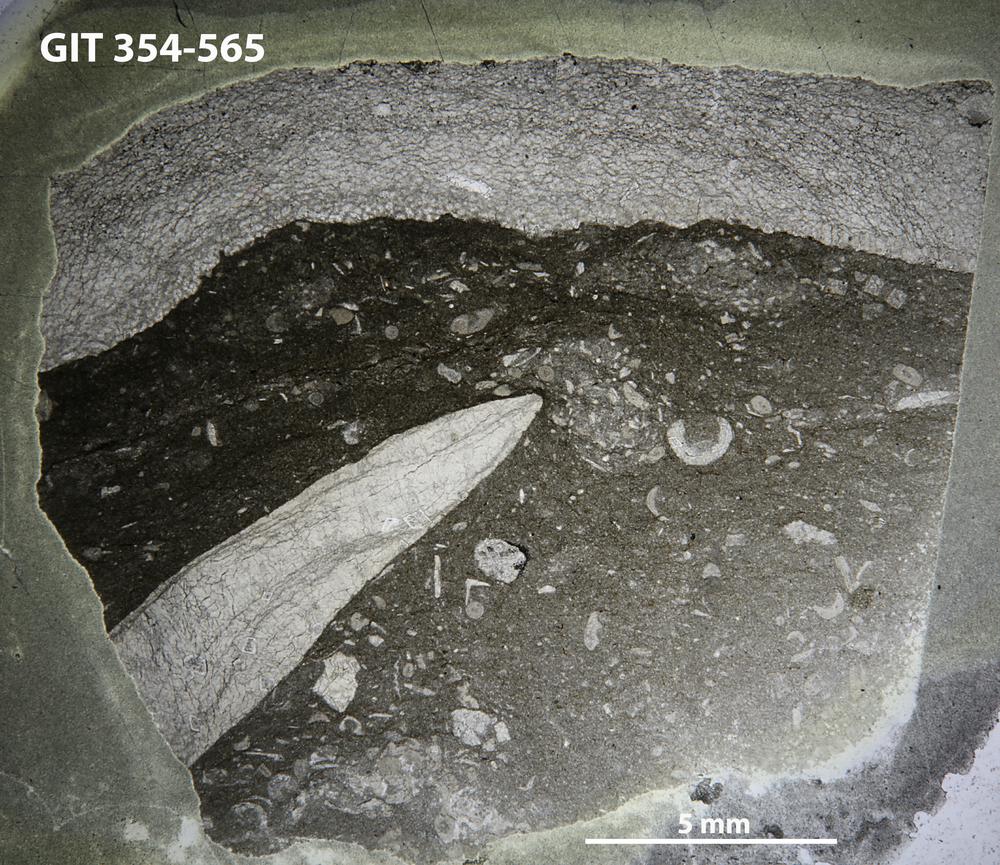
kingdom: Animalia
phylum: Porifera
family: Actinodictyidae
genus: Camptodictyon
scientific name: Camptodictyon
